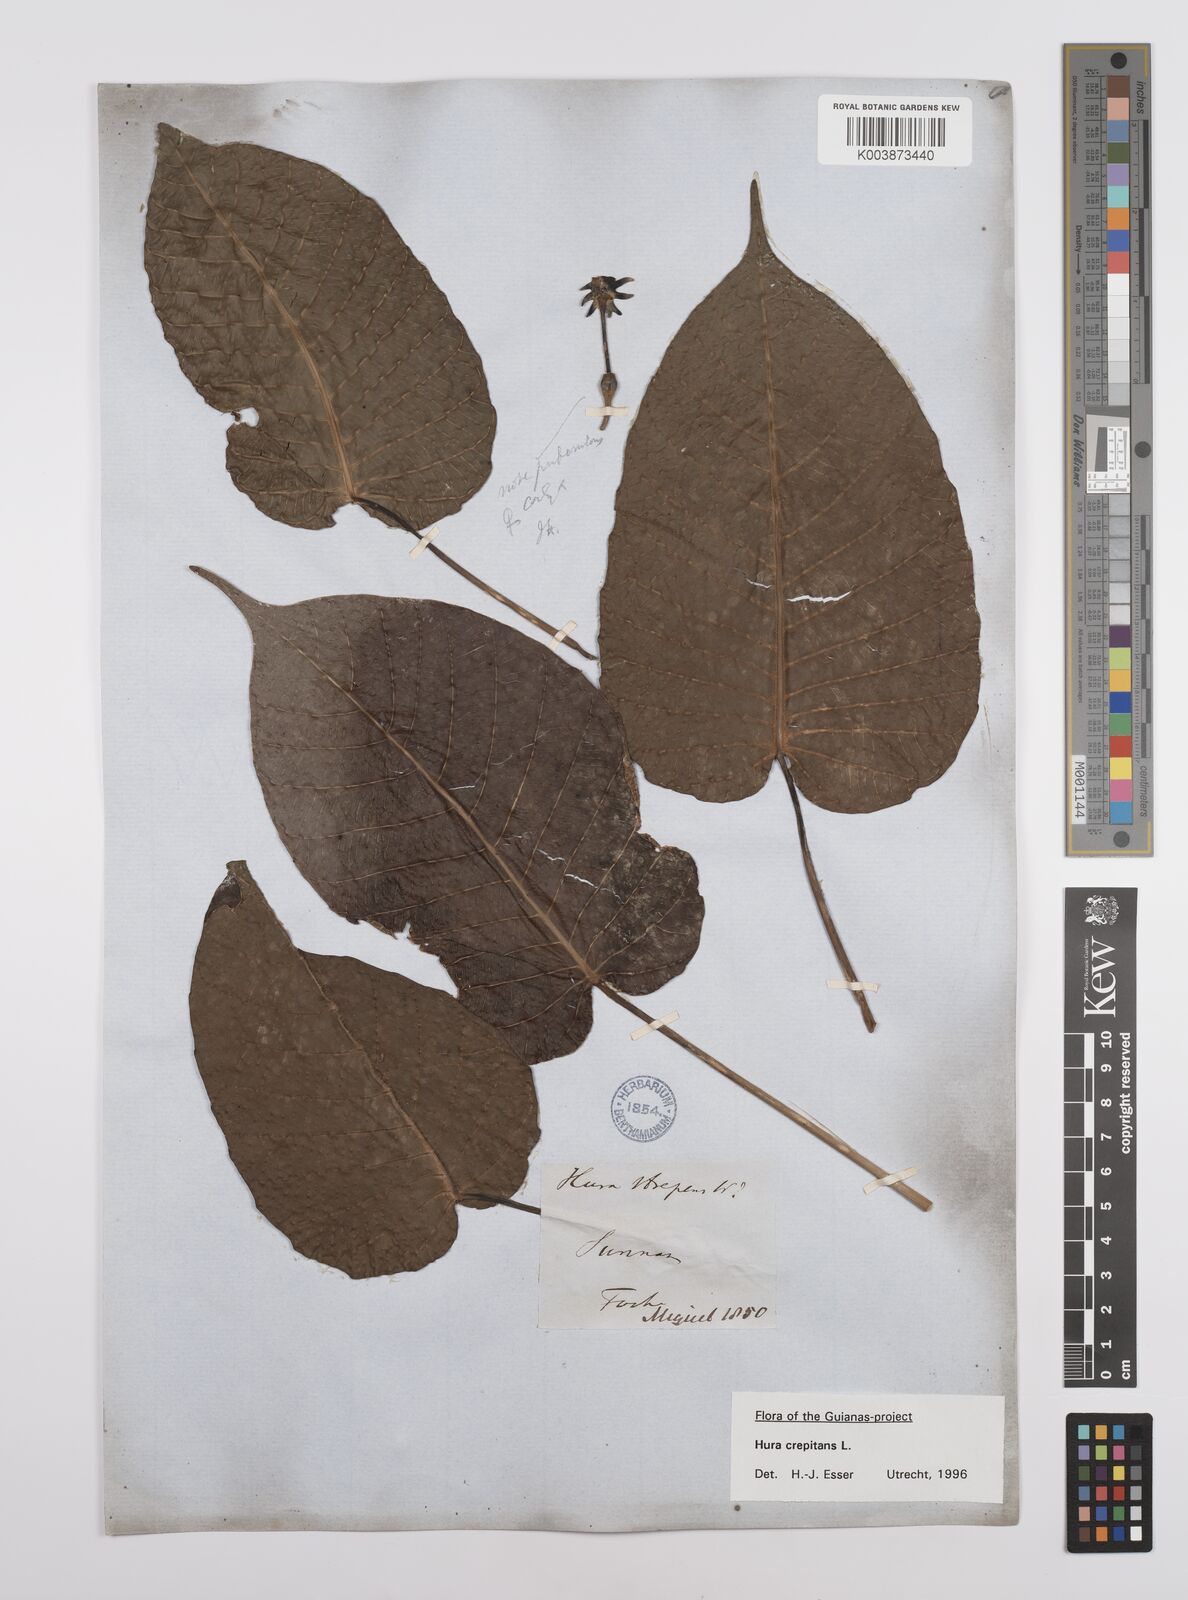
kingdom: Plantae
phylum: Tracheophyta
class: Magnoliopsida
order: Malpighiales
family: Euphorbiaceae
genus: Hura
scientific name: Hura crepitans
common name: Sandboxtree
